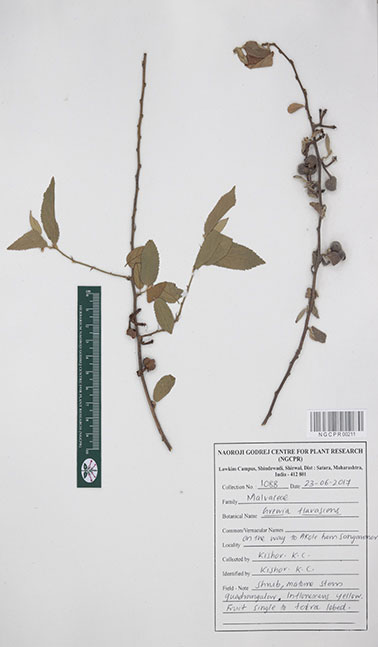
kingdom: Plantae
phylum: Tracheophyta
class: Magnoliopsida
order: Malvales
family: Malvaceae
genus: Grewia
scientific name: Grewia flavescens
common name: Sandpaper raisin
